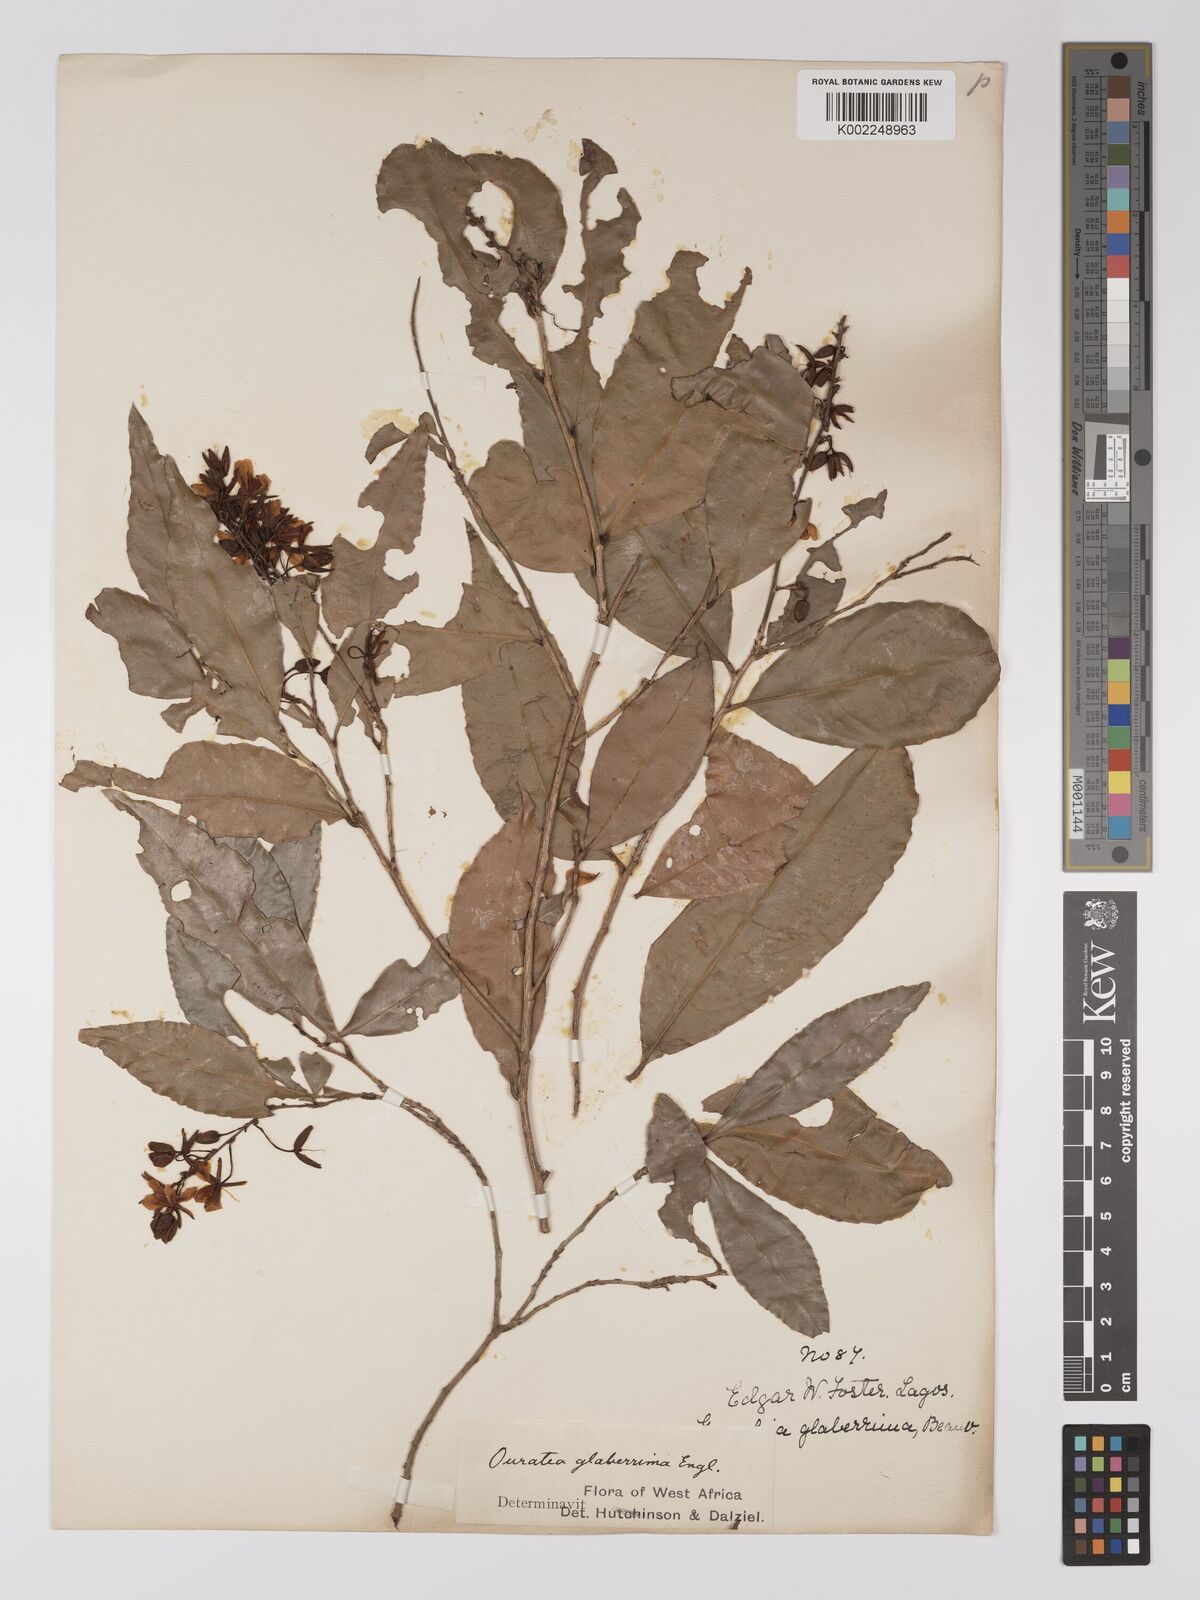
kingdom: Plantae
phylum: Tracheophyta
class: Magnoliopsida
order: Malpighiales
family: Ochnaceae
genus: Campylospermum
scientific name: Campylospermum glaberrimum
